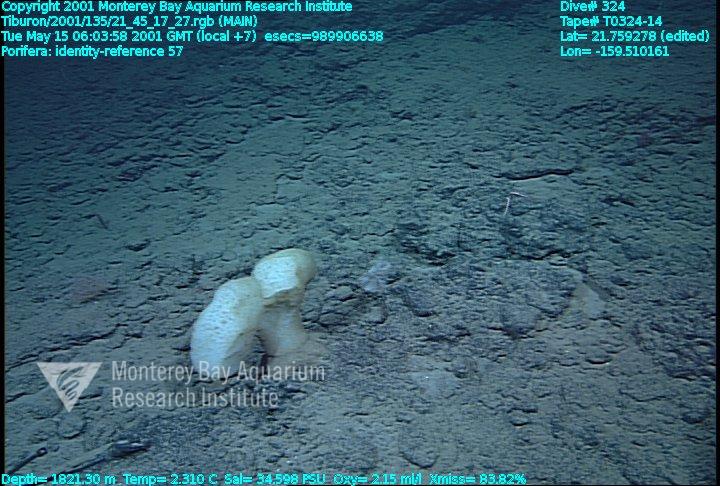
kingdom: Animalia
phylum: Porifera
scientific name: Porifera
